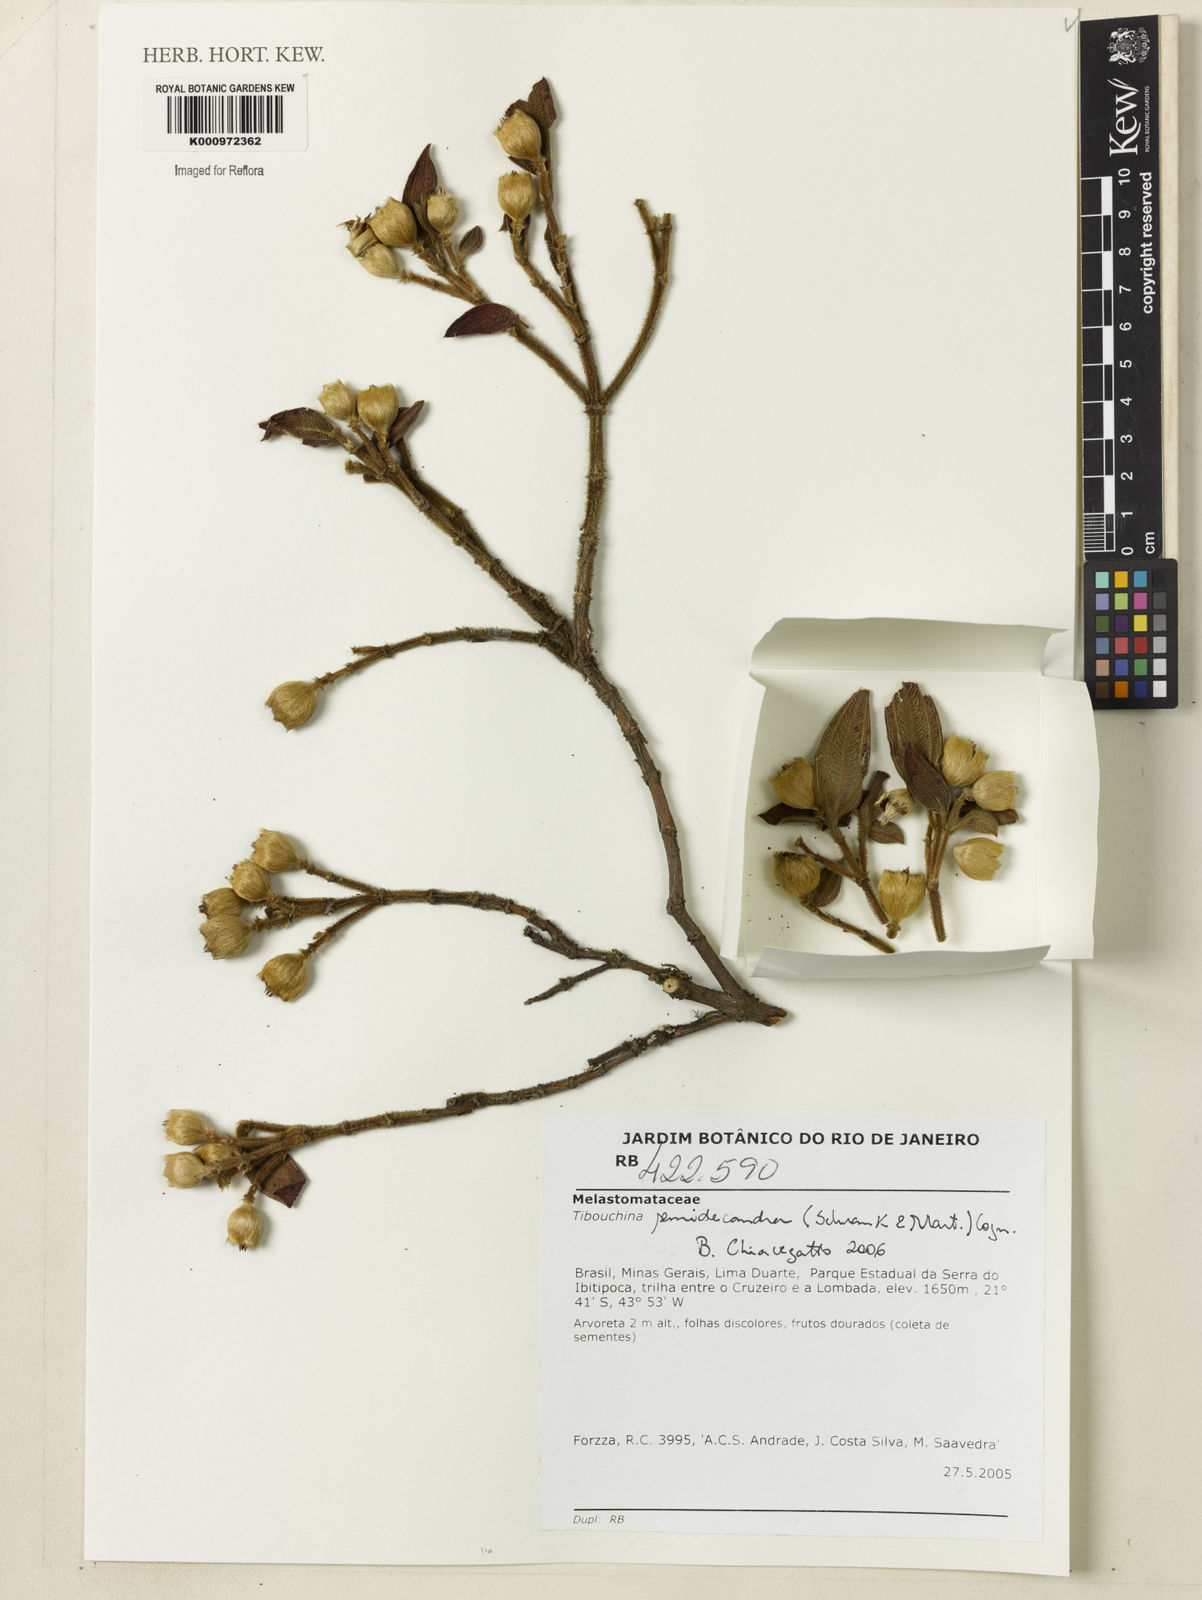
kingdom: Plantae
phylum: Tracheophyta
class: Magnoliopsida
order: Myrtales
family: Melastomataceae
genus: Pleroma
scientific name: Pleroma semidecandrum
